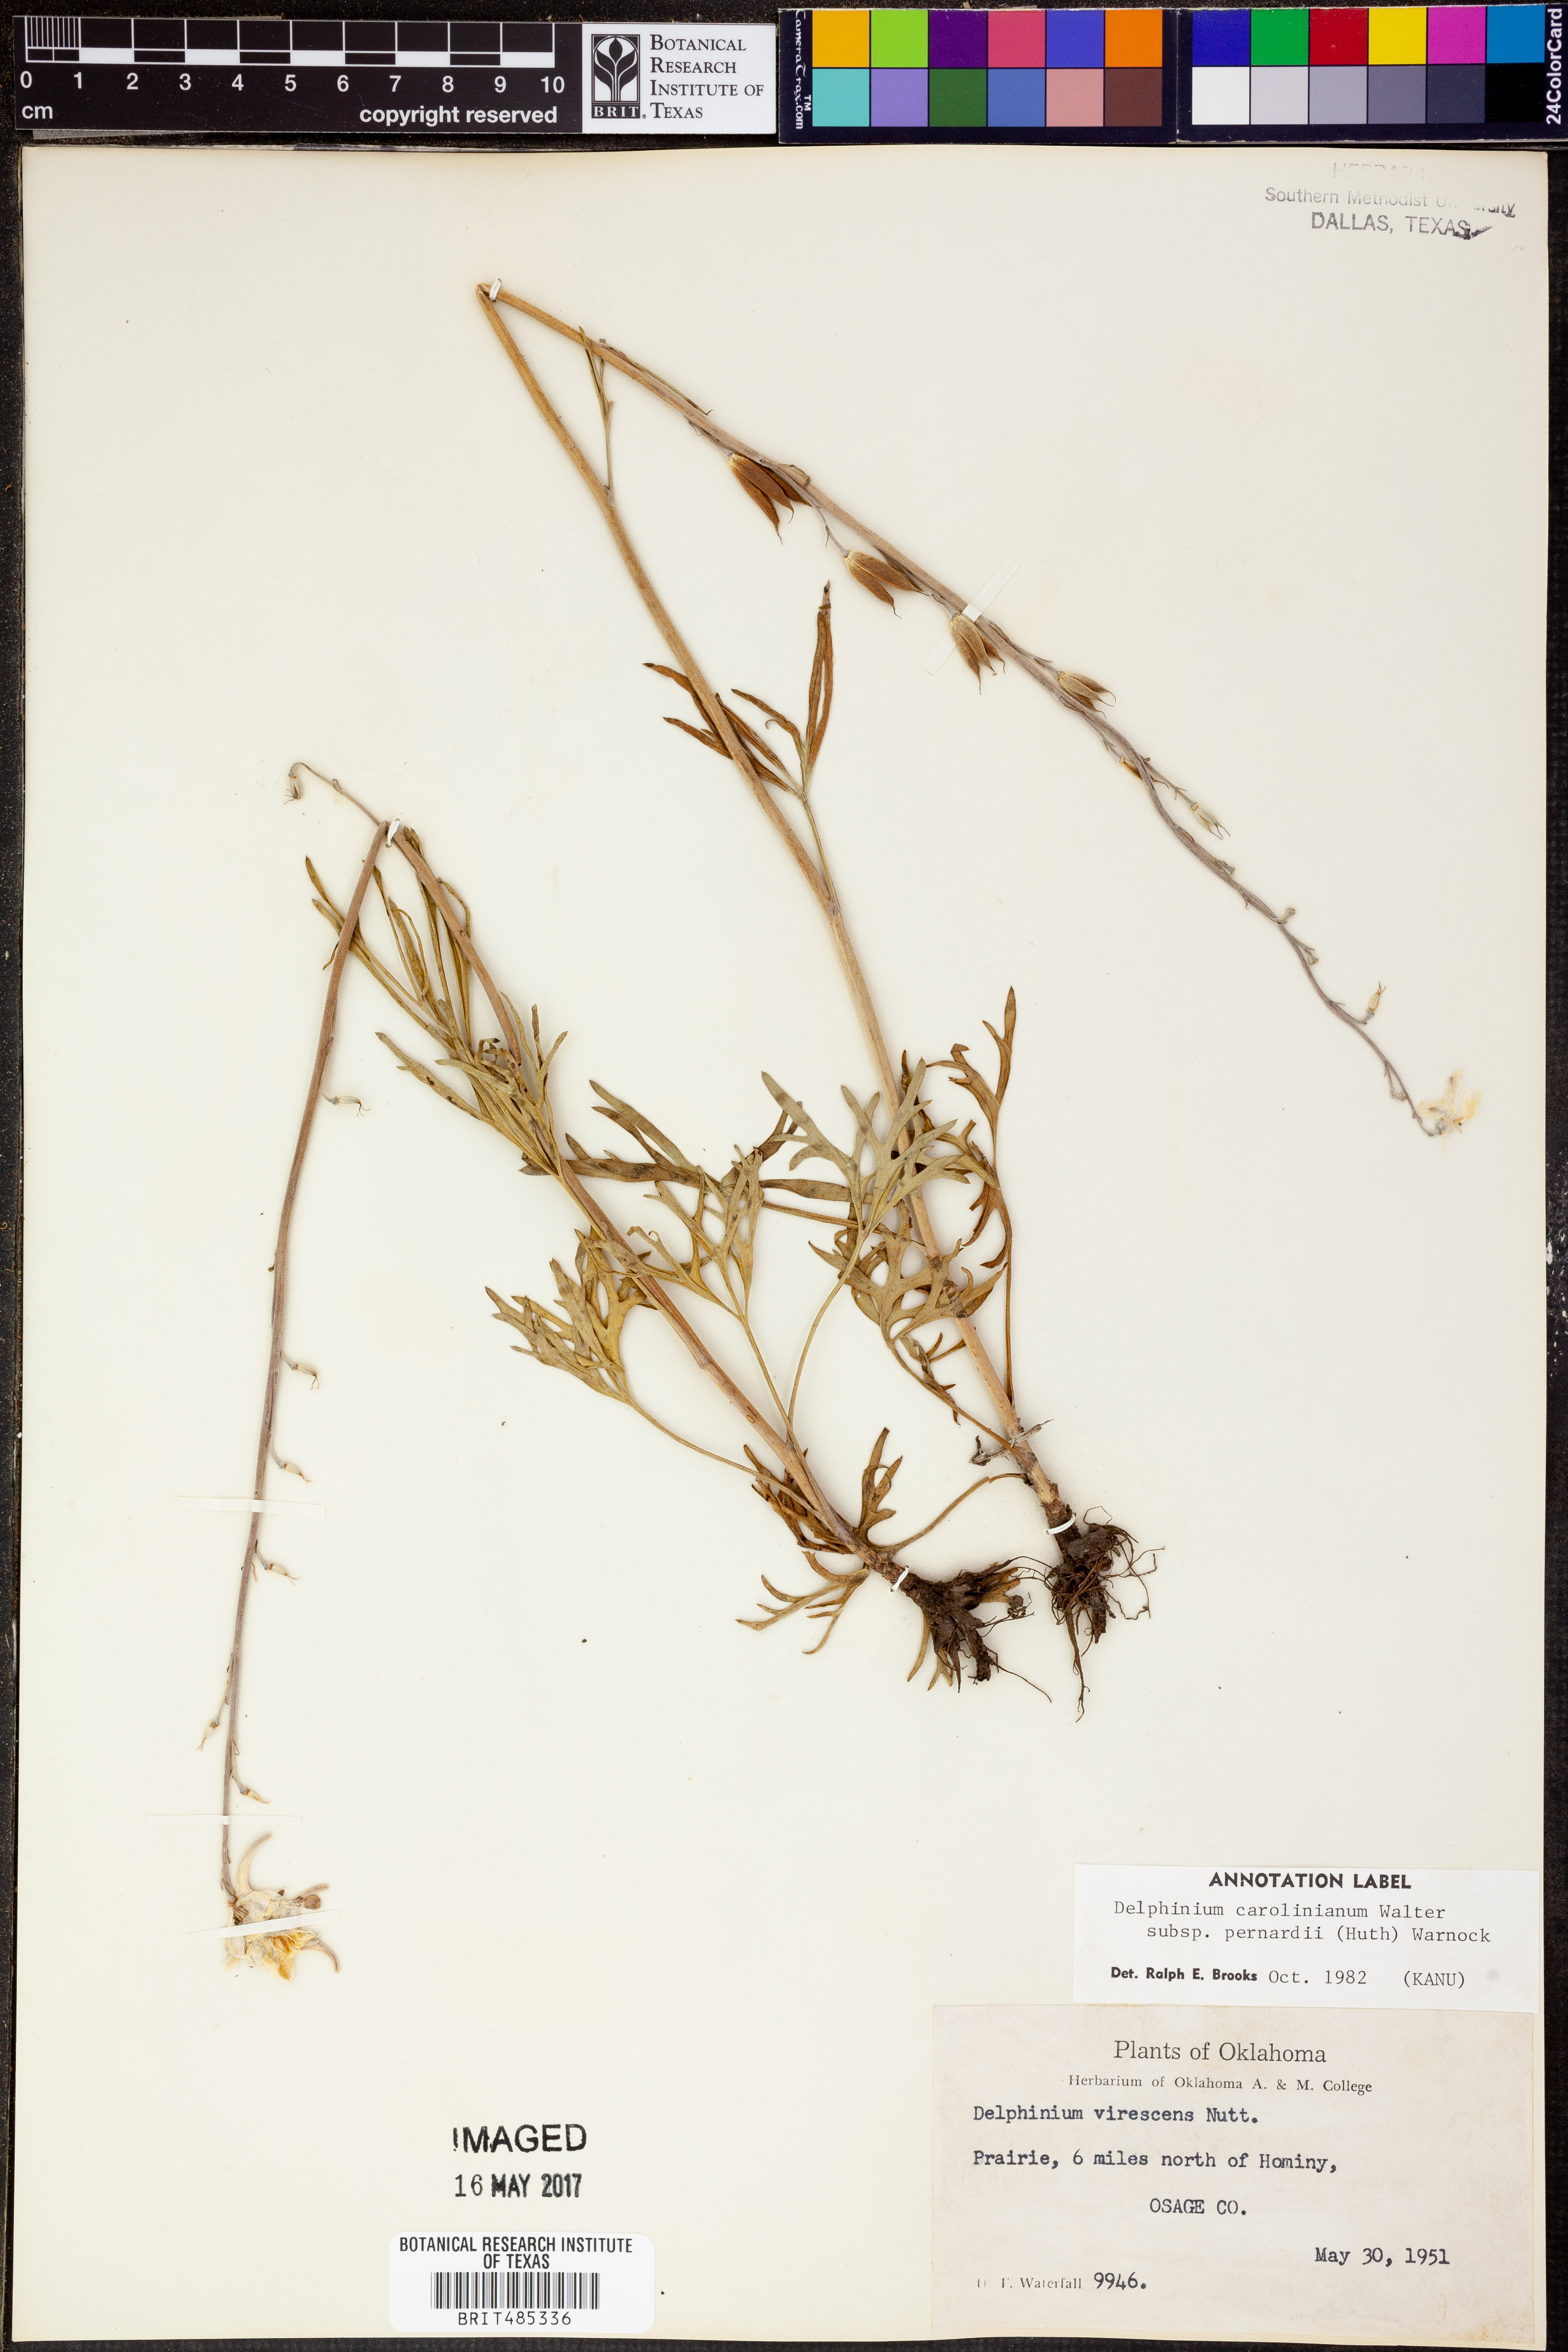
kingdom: Plantae
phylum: Tracheophyta
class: Magnoliopsida
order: Ranunculales
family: Ranunculaceae
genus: Delphinium
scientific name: Delphinium carolinianum
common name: Carolina larkspur
